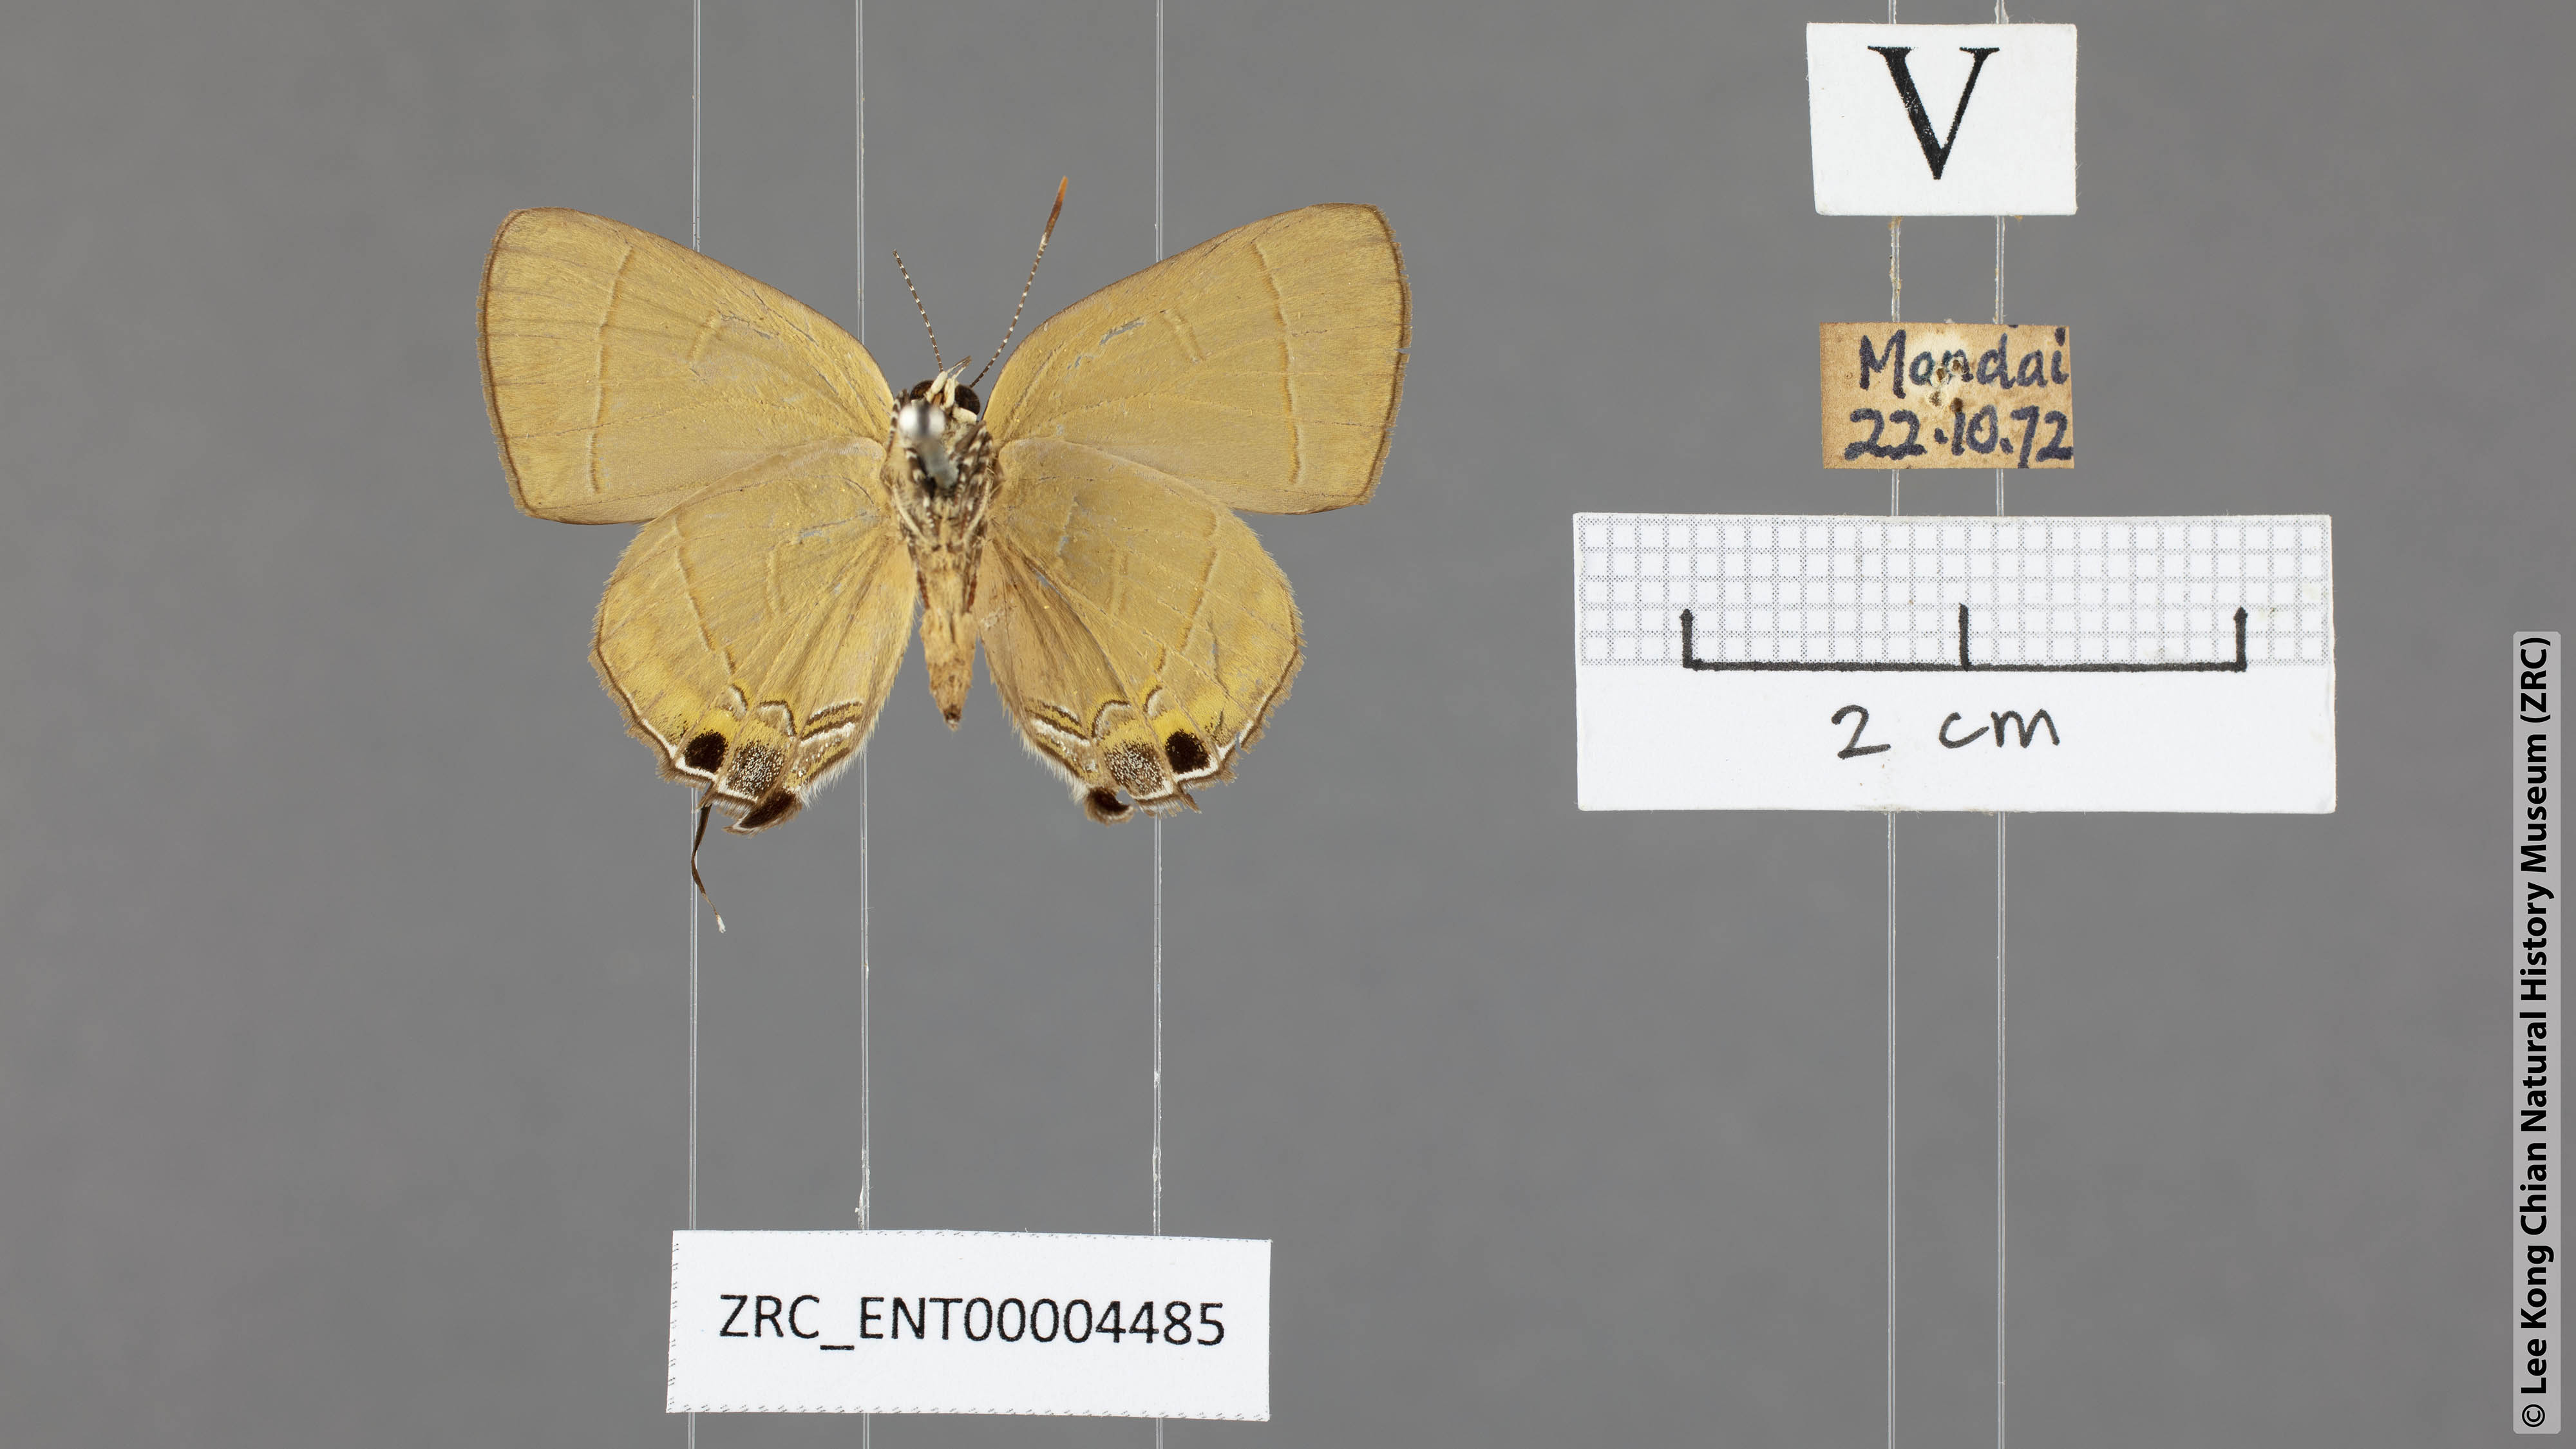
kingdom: Animalia
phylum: Arthropoda
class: Insecta
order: Lepidoptera
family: Lycaenidae
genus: Rapala
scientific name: Rapala dieneces
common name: Scarlet flash
